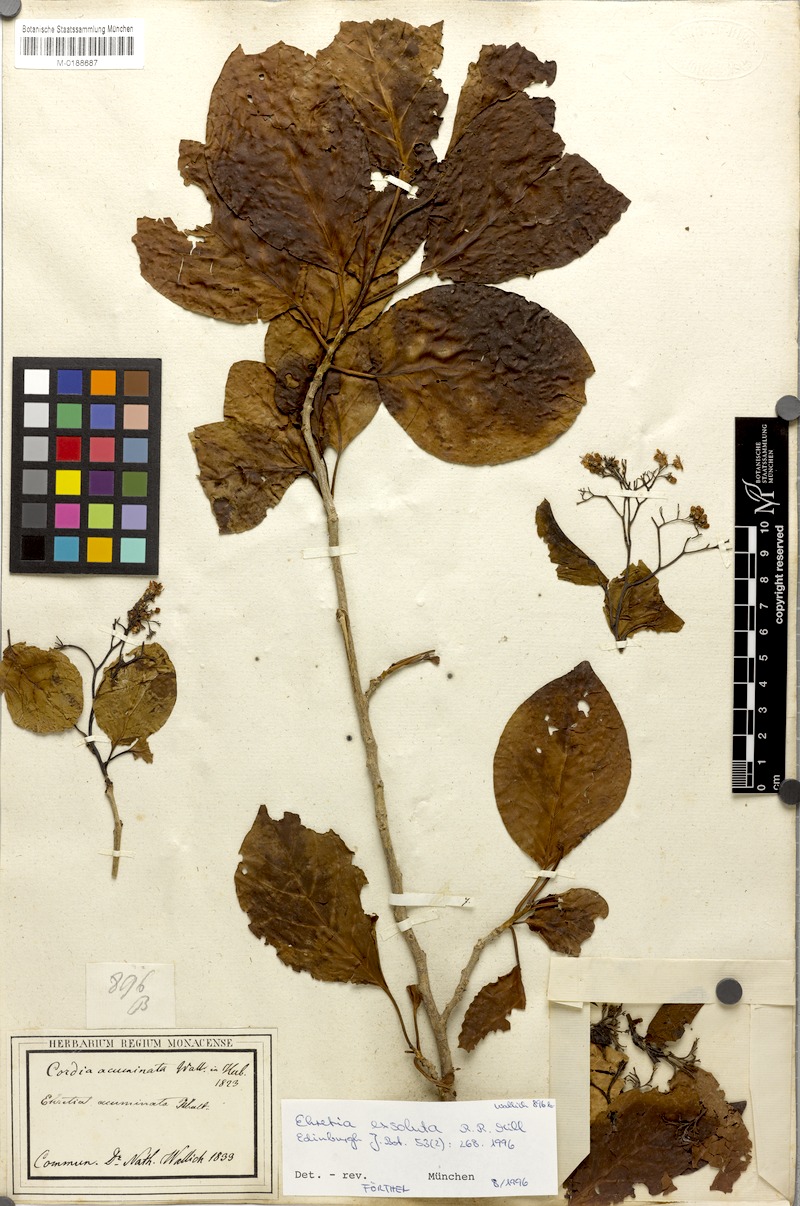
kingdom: Plantae
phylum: Tracheophyta
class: Magnoliopsida
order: Boraginales
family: Ehretiaceae
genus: Ehretia
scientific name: Ehretia wallichiana
